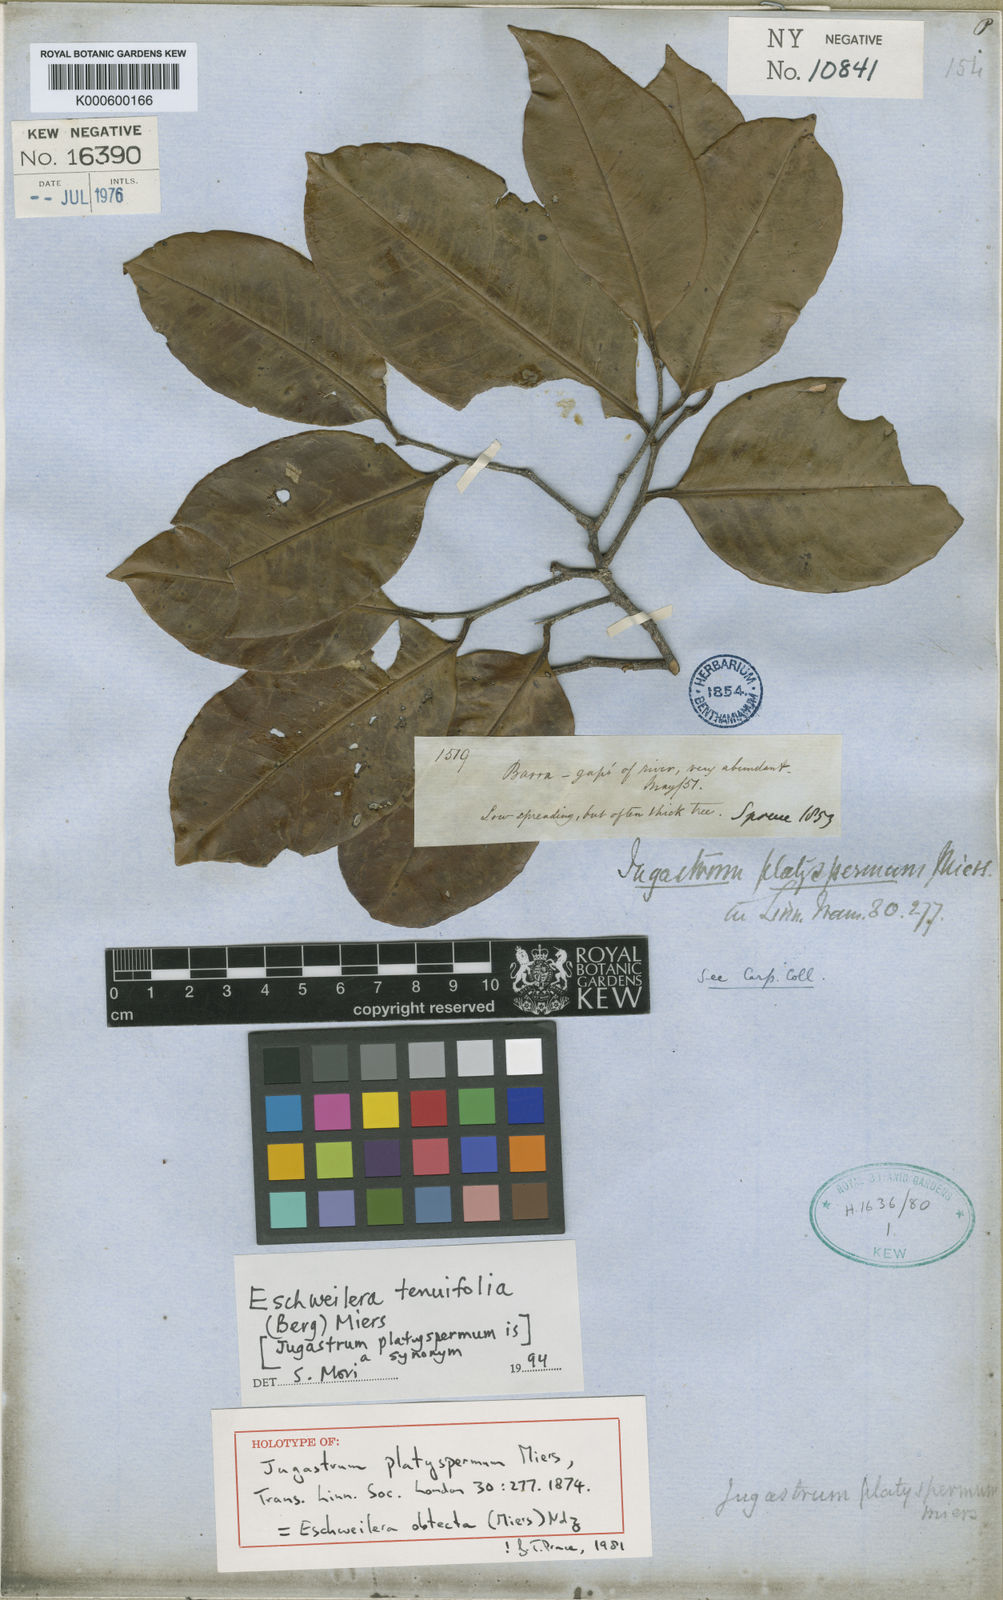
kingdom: Plantae
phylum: Tracheophyta
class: Magnoliopsida
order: Ericales
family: Lecythidaceae
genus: Eschweilera
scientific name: Eschweilera tenuifolia
